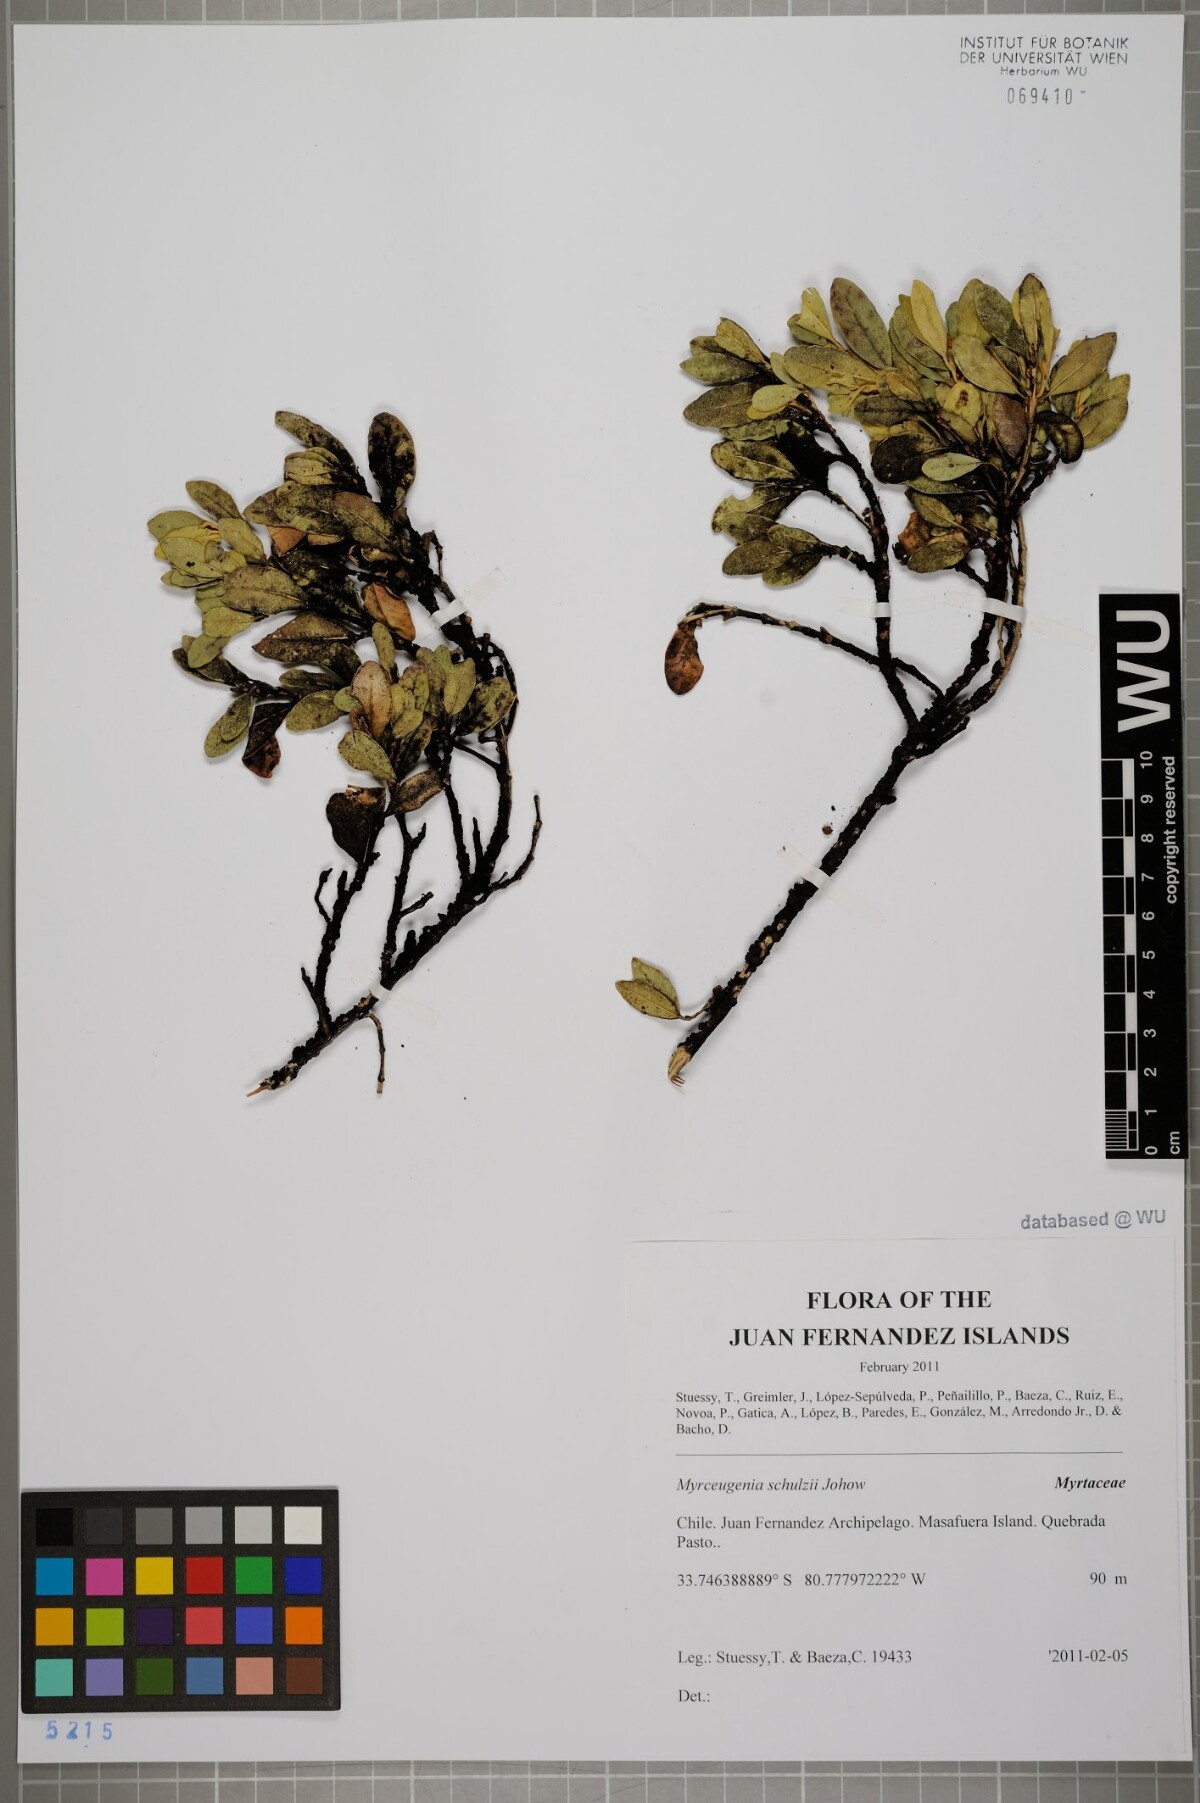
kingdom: Plantae
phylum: Tracheophyta
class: Magnoliopsida
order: Myrtales
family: Myrtaceae
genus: Myrceugenia
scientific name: Myrceugenia schulzei
